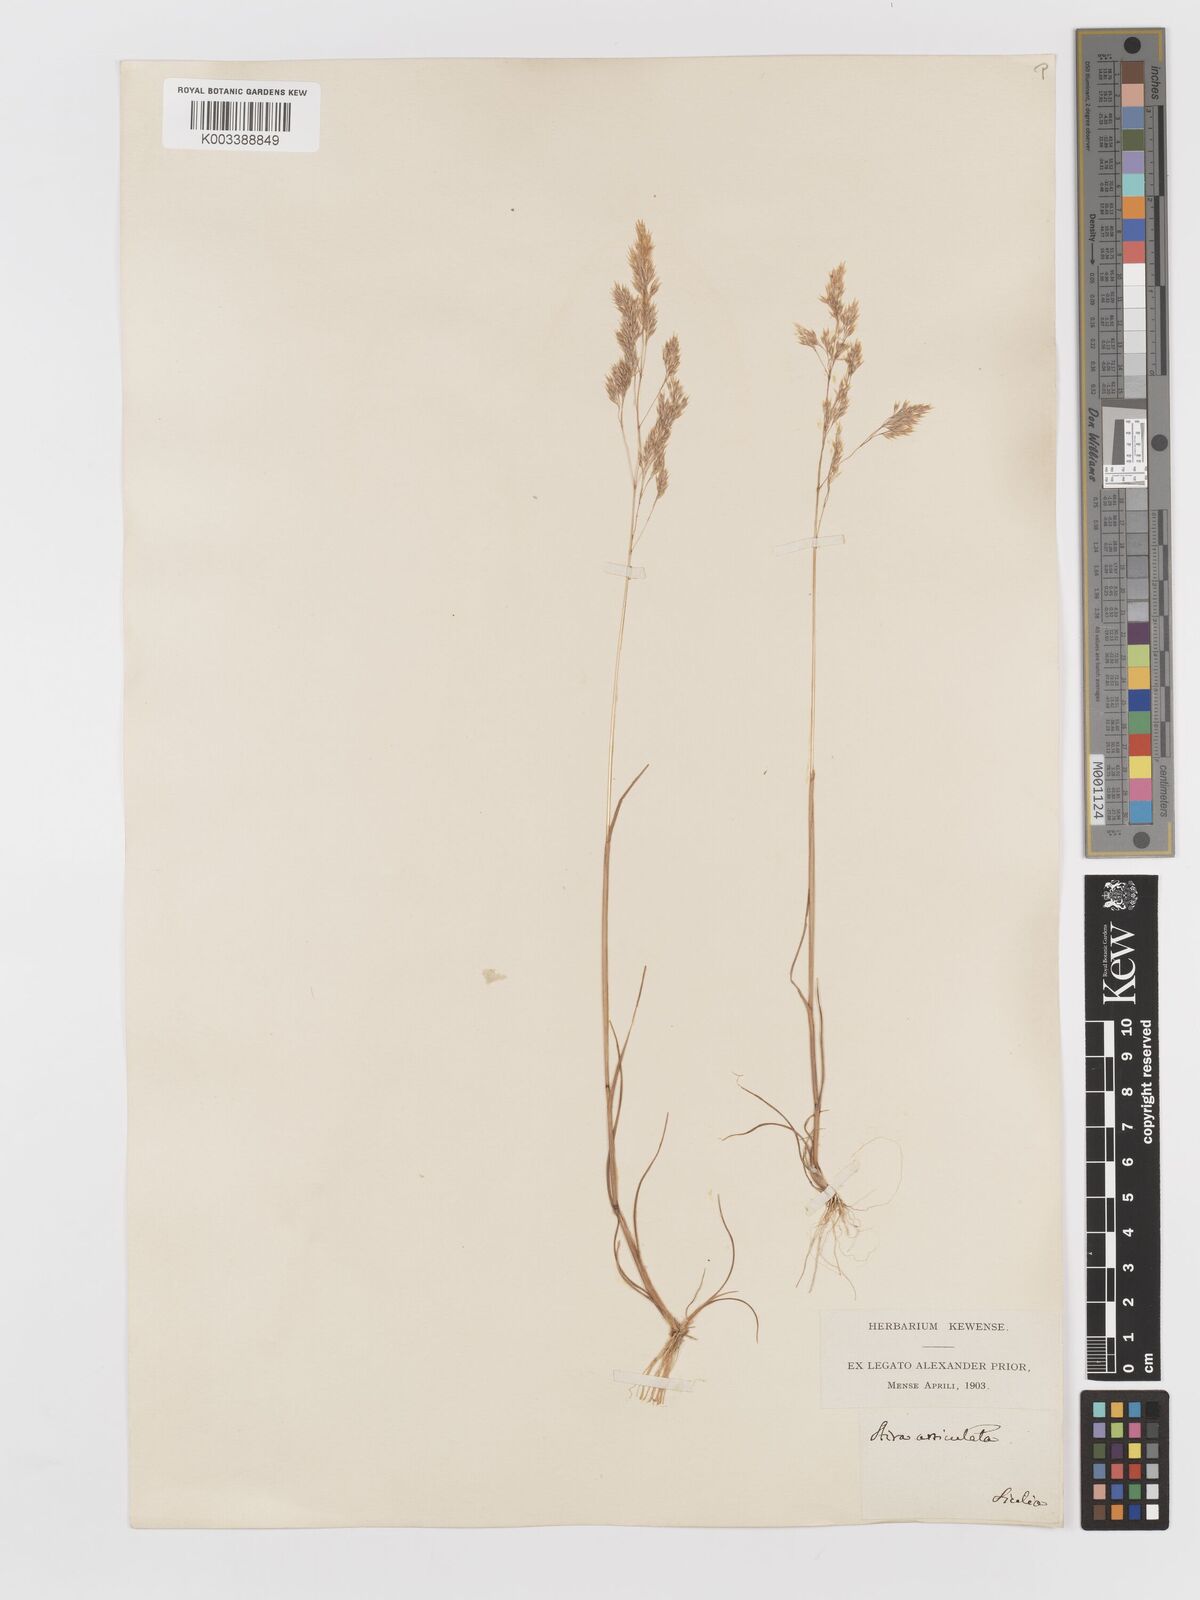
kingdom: Plantae
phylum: Tracheophyta
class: Liliopsida
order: Poales
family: Poaceae
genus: Corynephorus
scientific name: Corynephorus divaricatus
